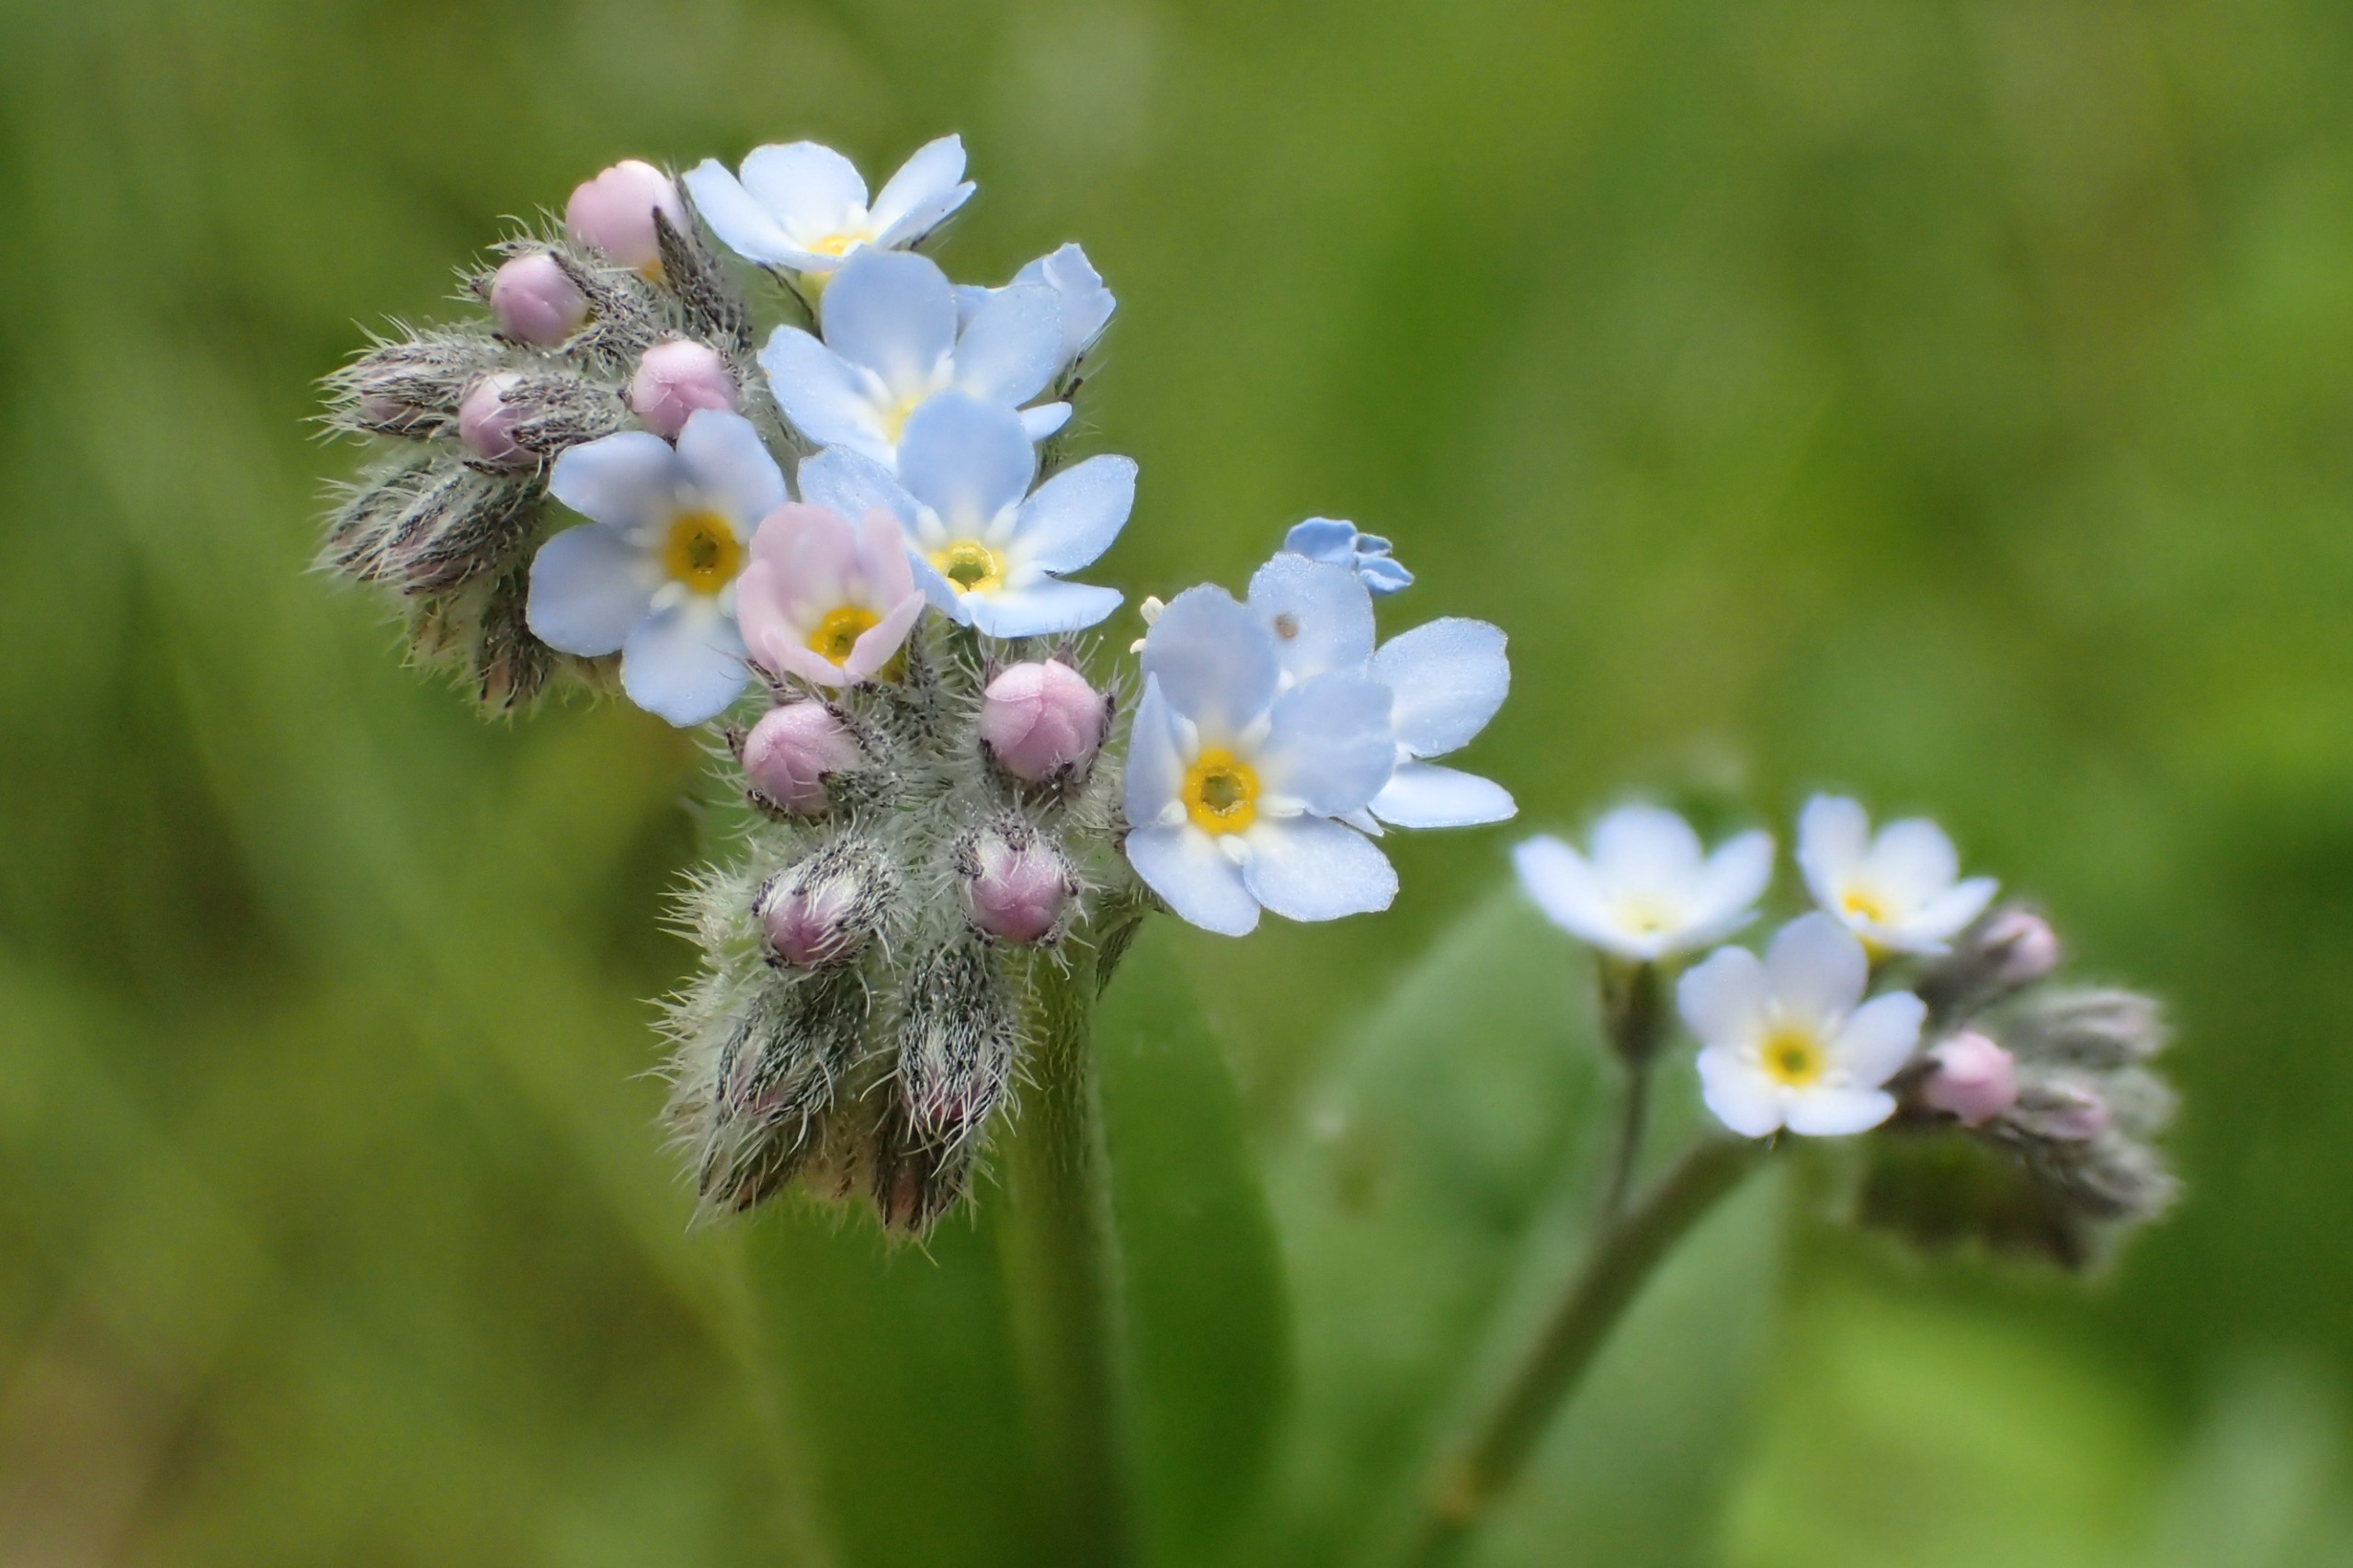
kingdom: Plantae
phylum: Tracheophyta
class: Magnoliopsida
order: Boraginales
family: Boraginaceae
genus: Myosotis
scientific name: Myosotis arvensis
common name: Mark-forglemmigej
